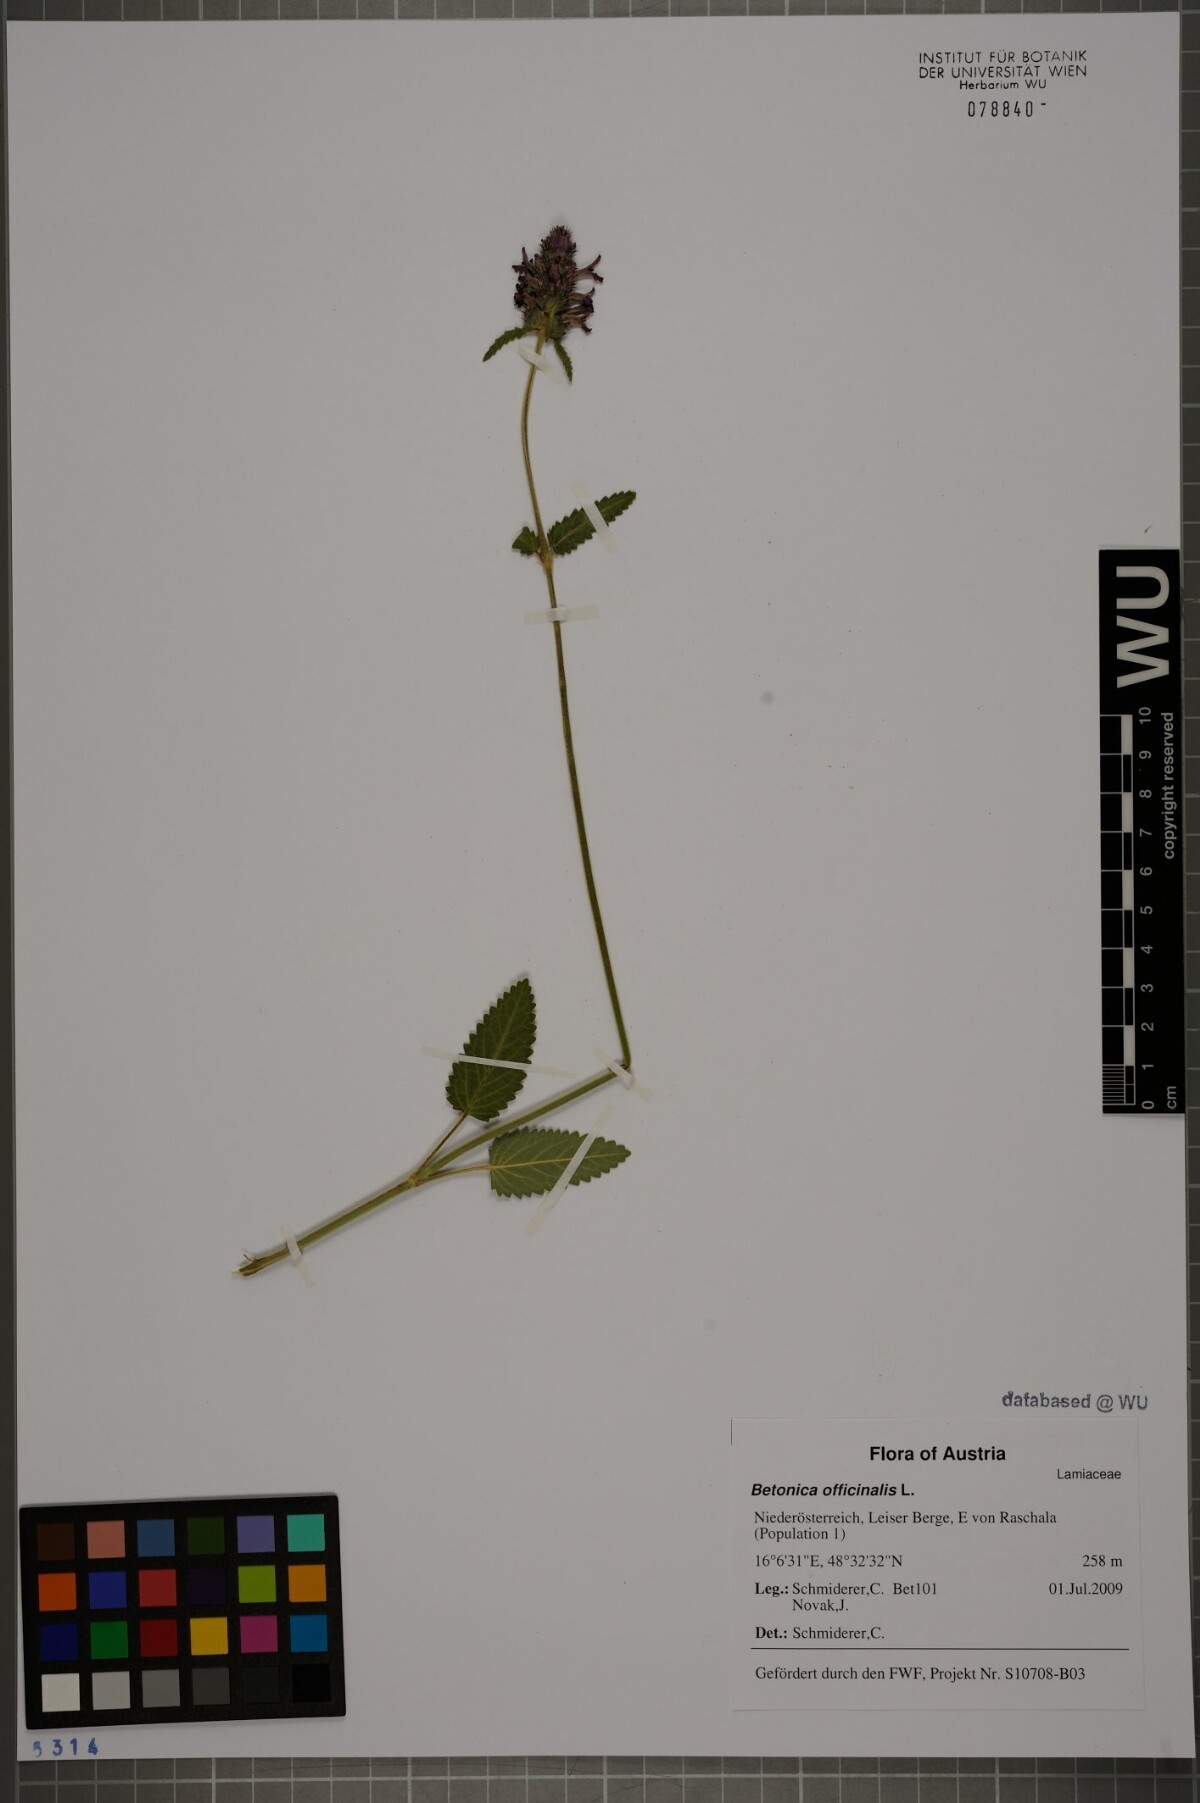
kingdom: Plantae
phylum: Tracheophyta
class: Magnoliopsida
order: Lamiales
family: Lamiaceae
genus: Betonica
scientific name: Betonica officinalis
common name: Bishop's-wort
